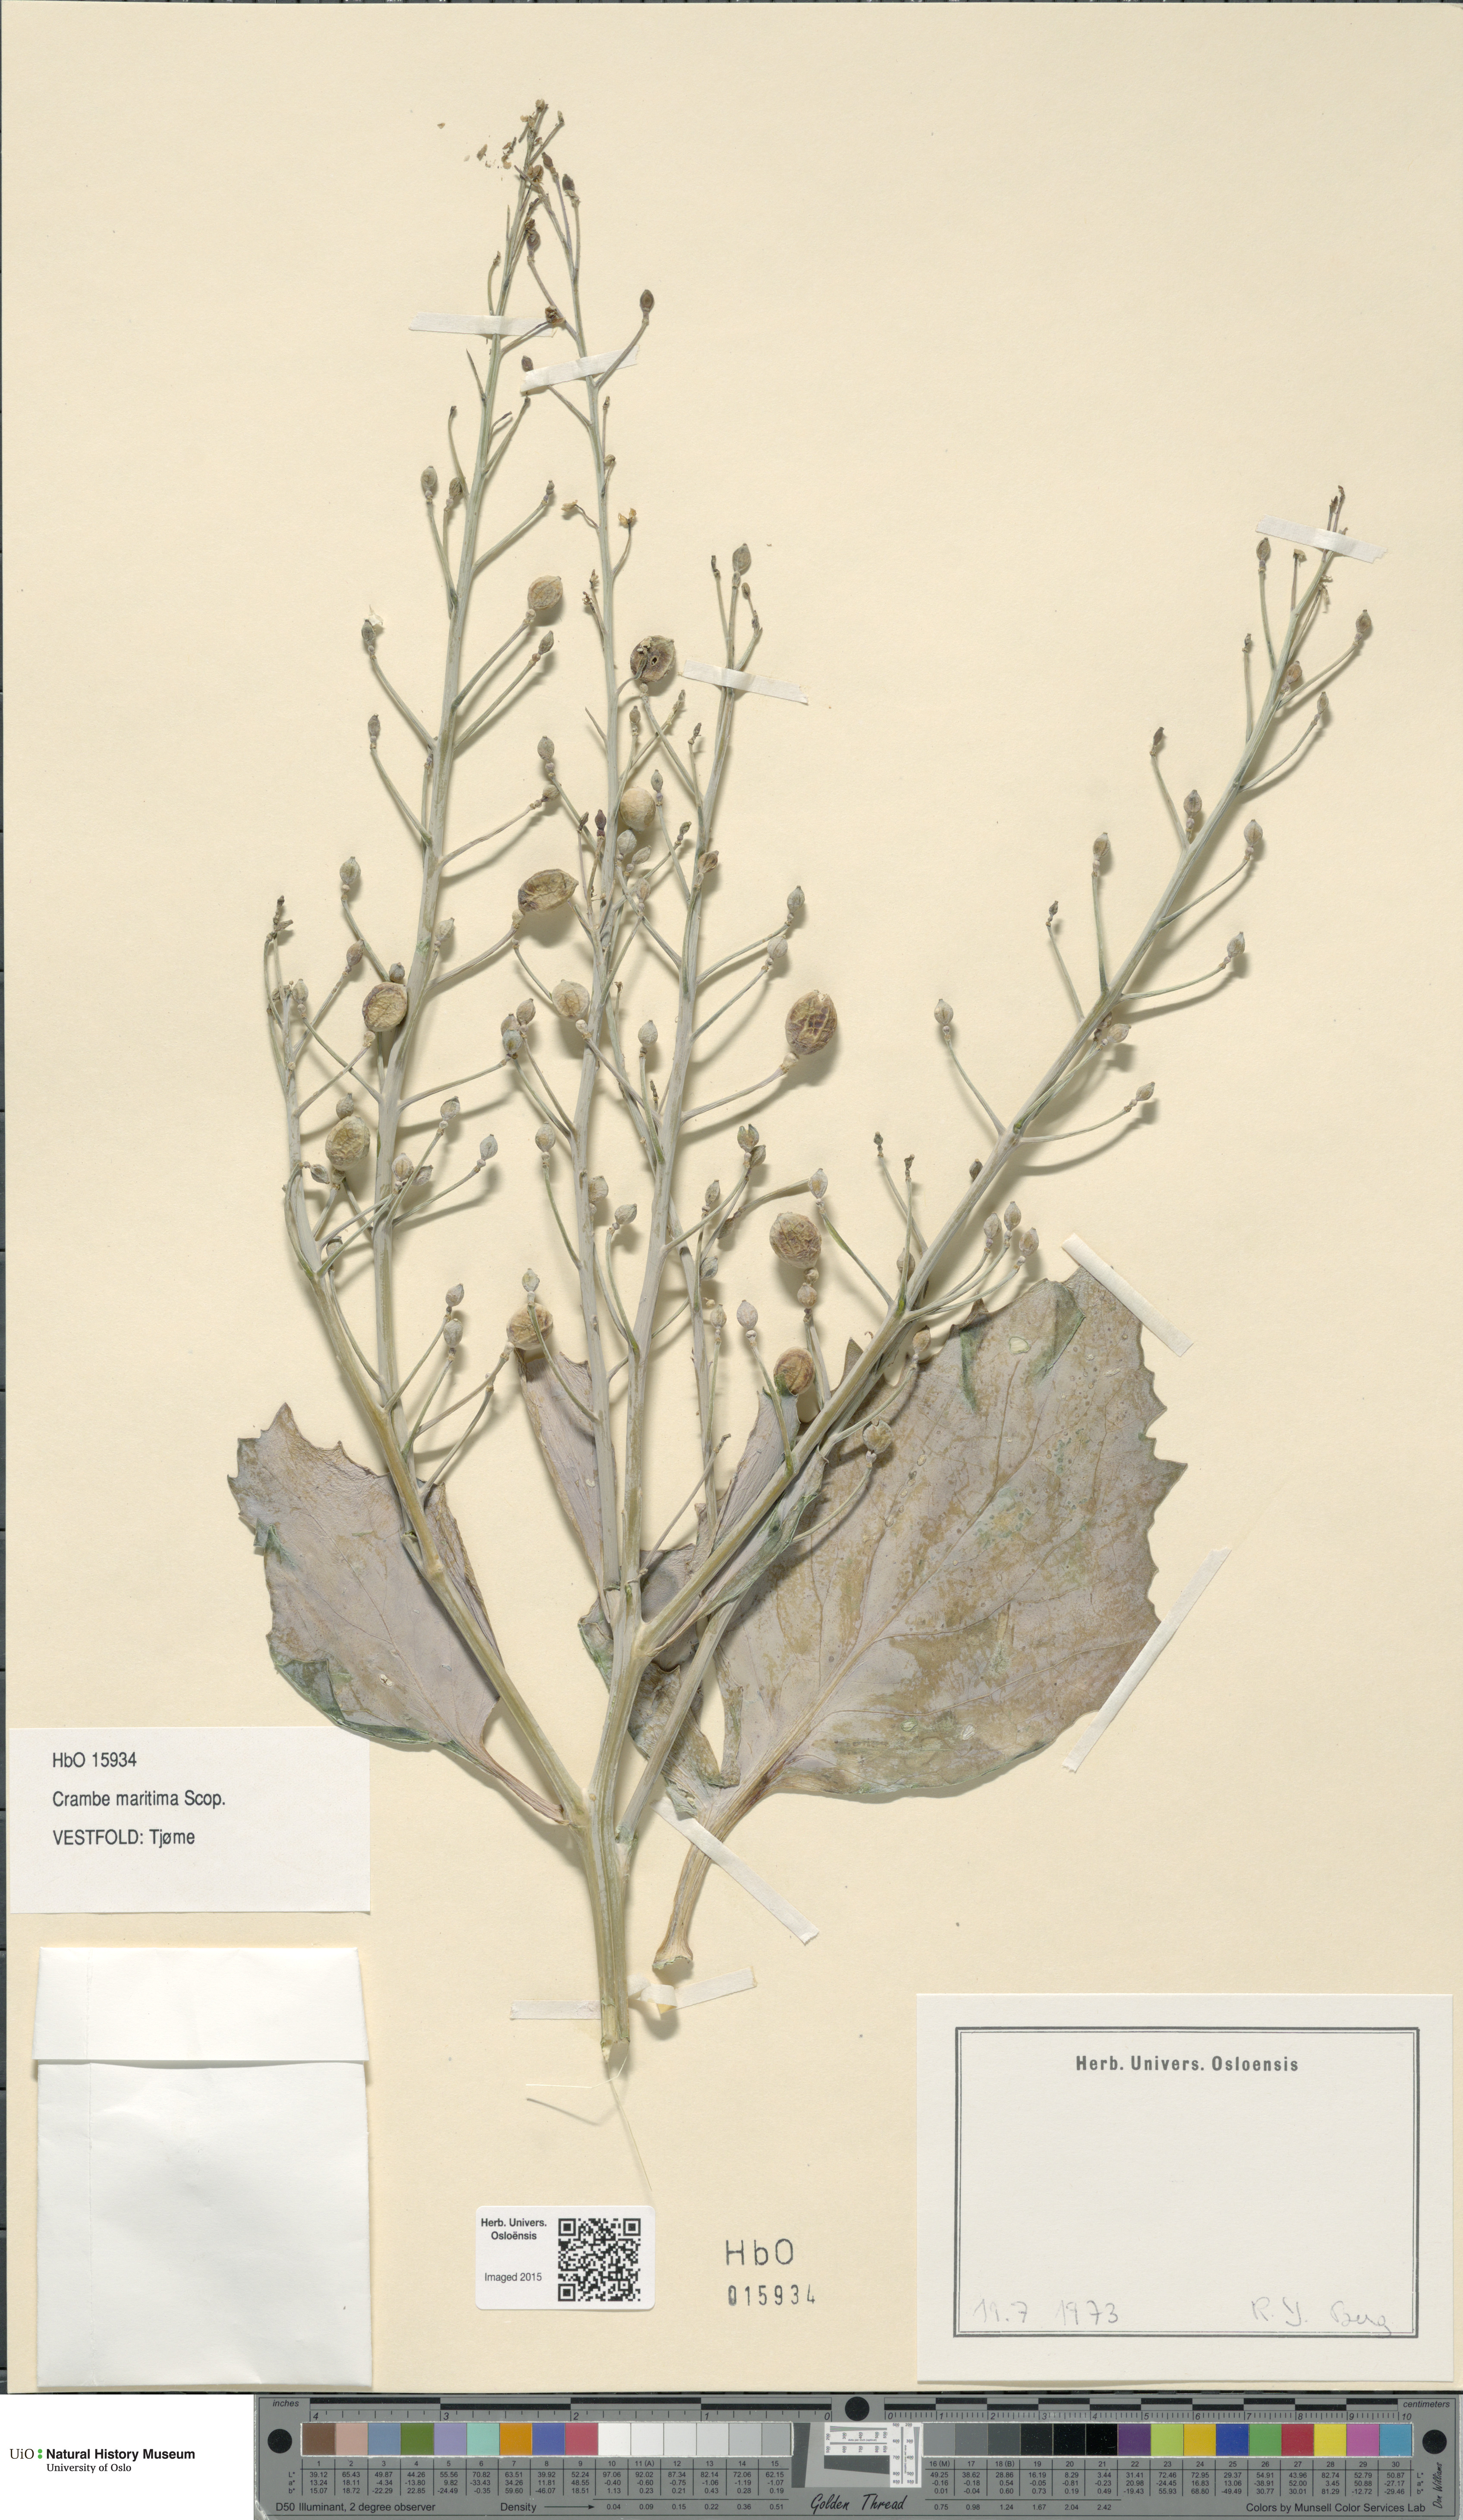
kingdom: Plantae
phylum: Tracheophyta
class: Magnoliopsida
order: Brassicales
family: Brassicaceae
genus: Crambe
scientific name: Crambe maritima
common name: Sea-kale
